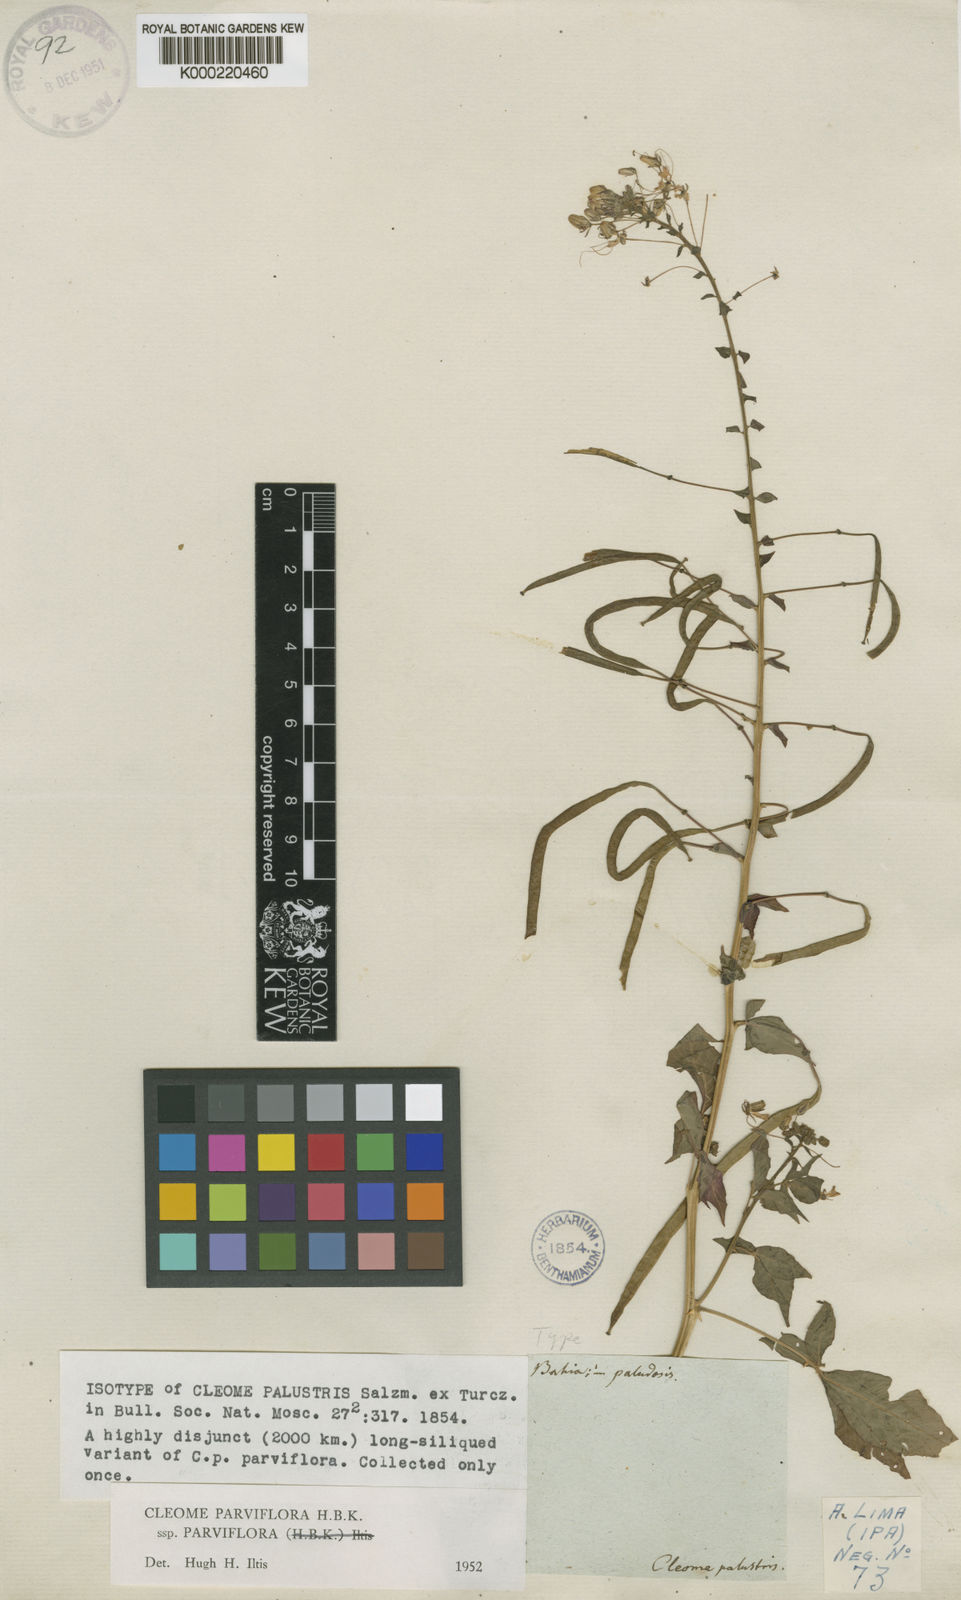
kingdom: Plantae
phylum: Tracheophyta
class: Magnoliopsida
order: Brassicales
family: Cleomaceae
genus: Tarenaya
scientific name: Tarenaya parviflora
